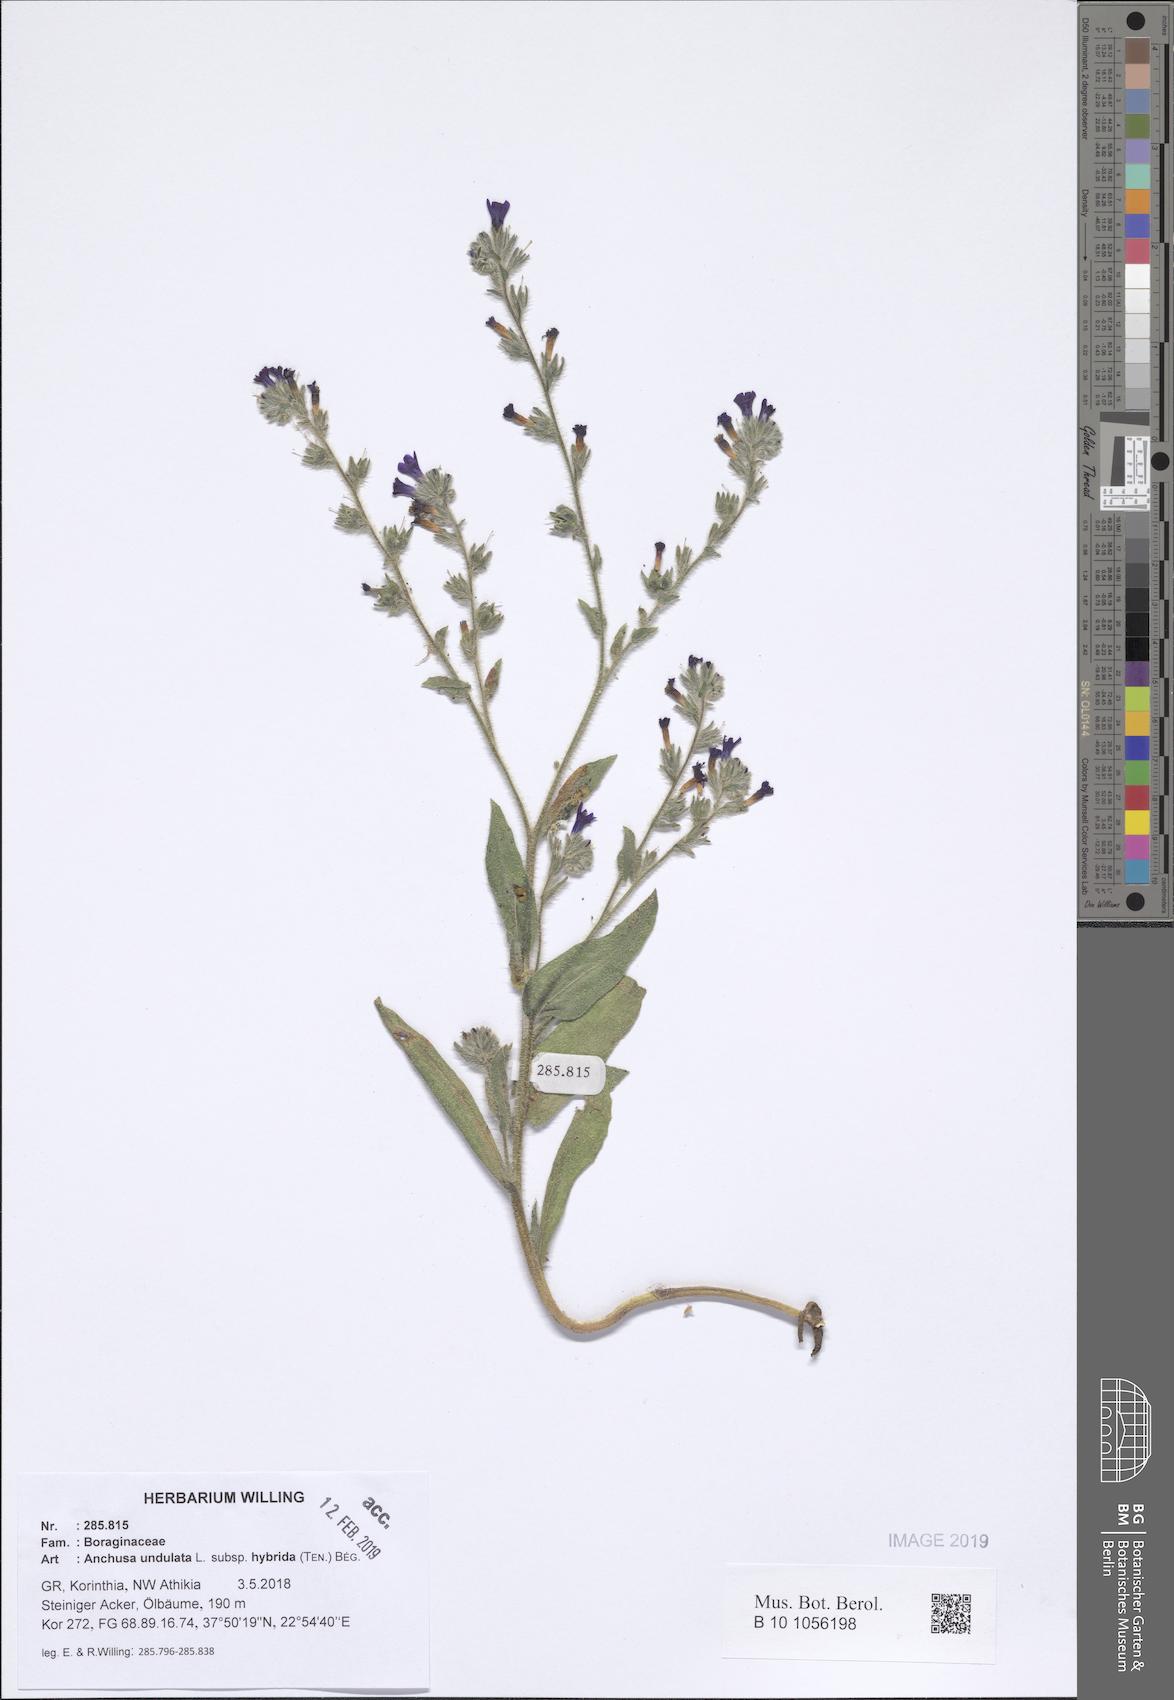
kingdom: Plantae
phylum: Tracheophyta
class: Magnoliopsida
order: Boraginales
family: Boraginaceae
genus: Anchusa
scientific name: Anchusa undulata
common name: Undulate alkanet
